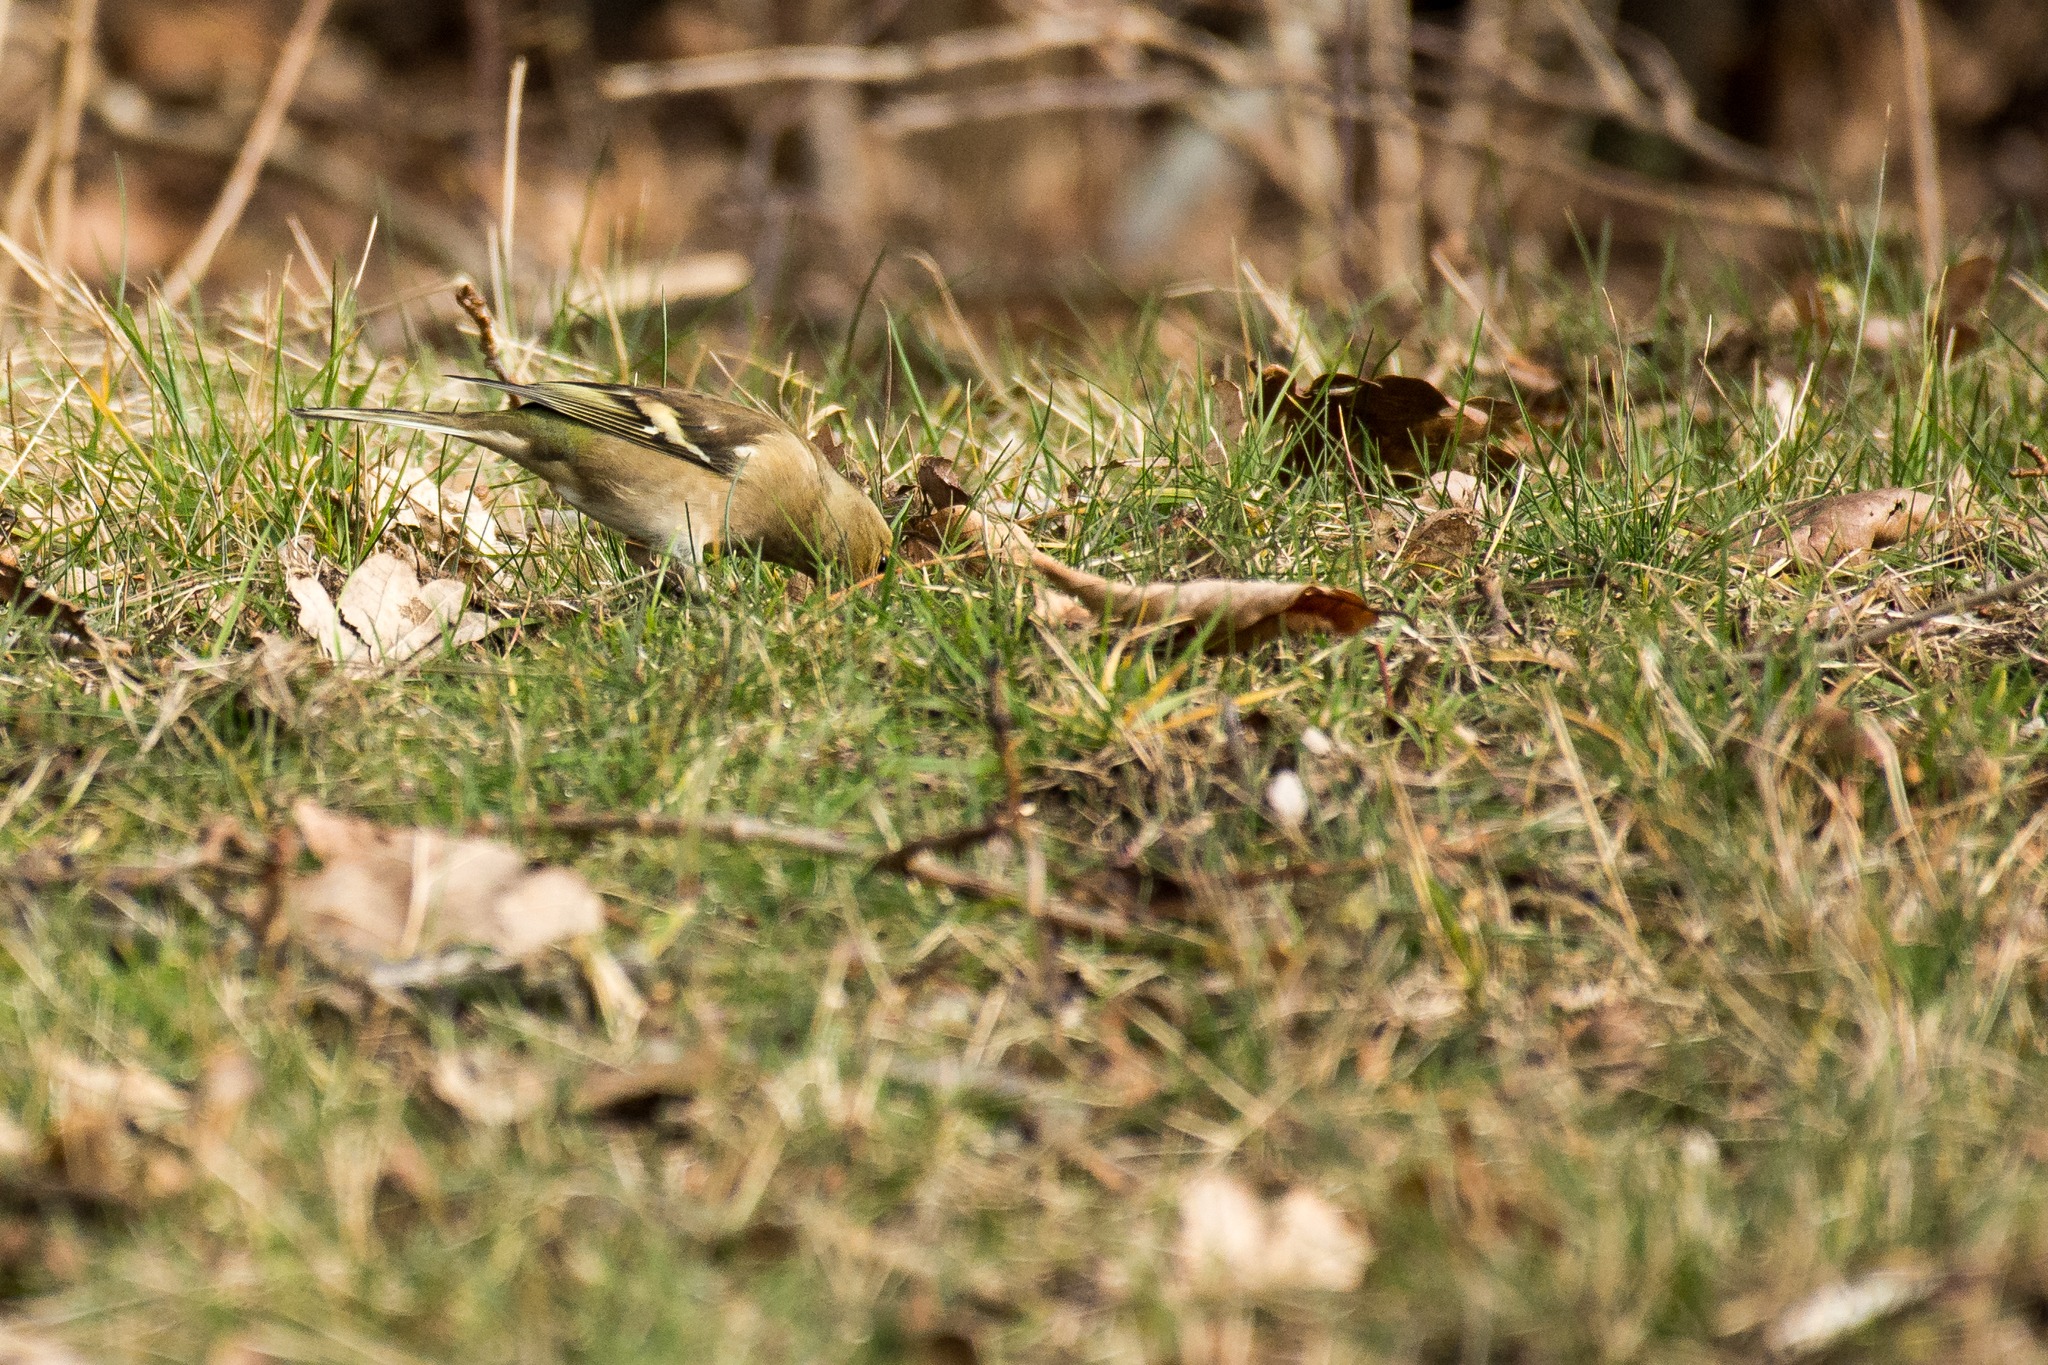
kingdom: Animalia
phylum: Chordata
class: Aves
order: Passeriformes
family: Fringillidae
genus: Fringilla
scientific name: Fringilla coelebs
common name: Bogfinke
